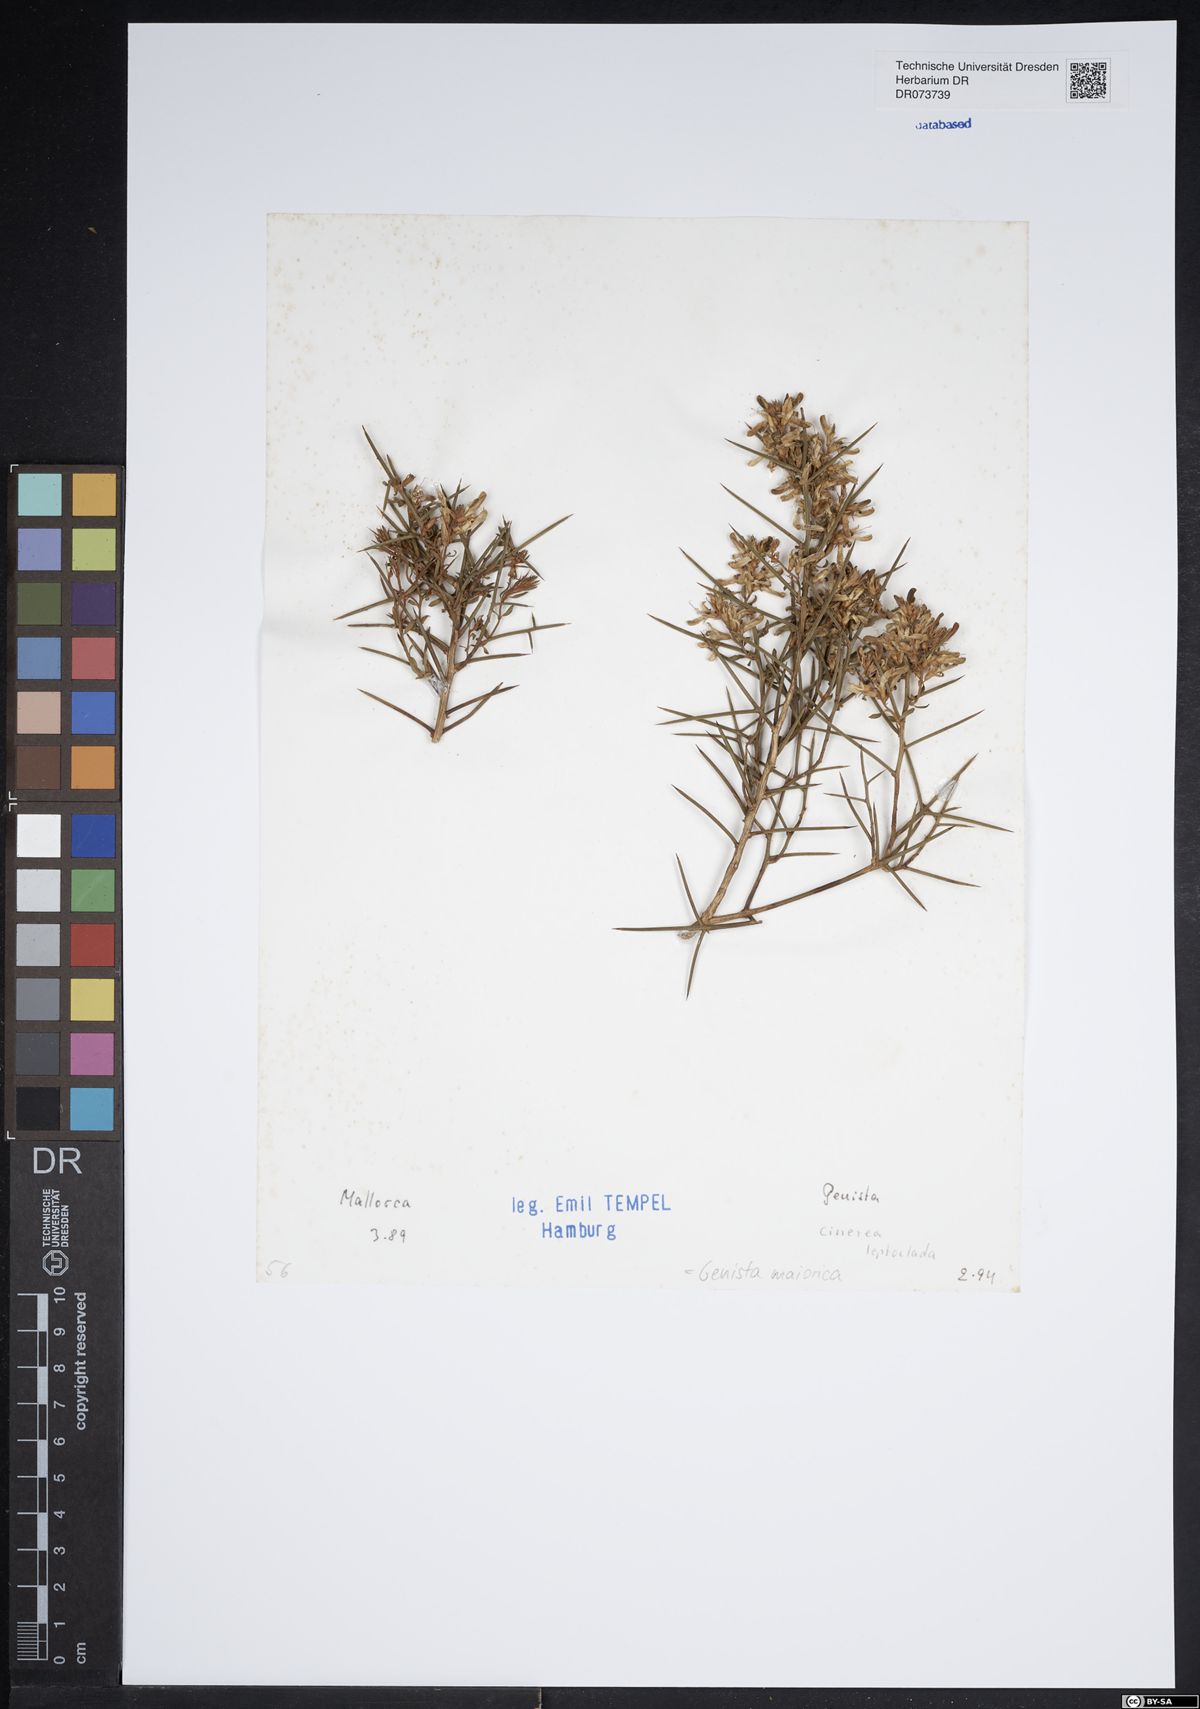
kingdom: Plantae
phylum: Tracheophyta
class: Magnoliopsida
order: Fabales
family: Fabaceae
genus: Genista
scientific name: Genista majorica
